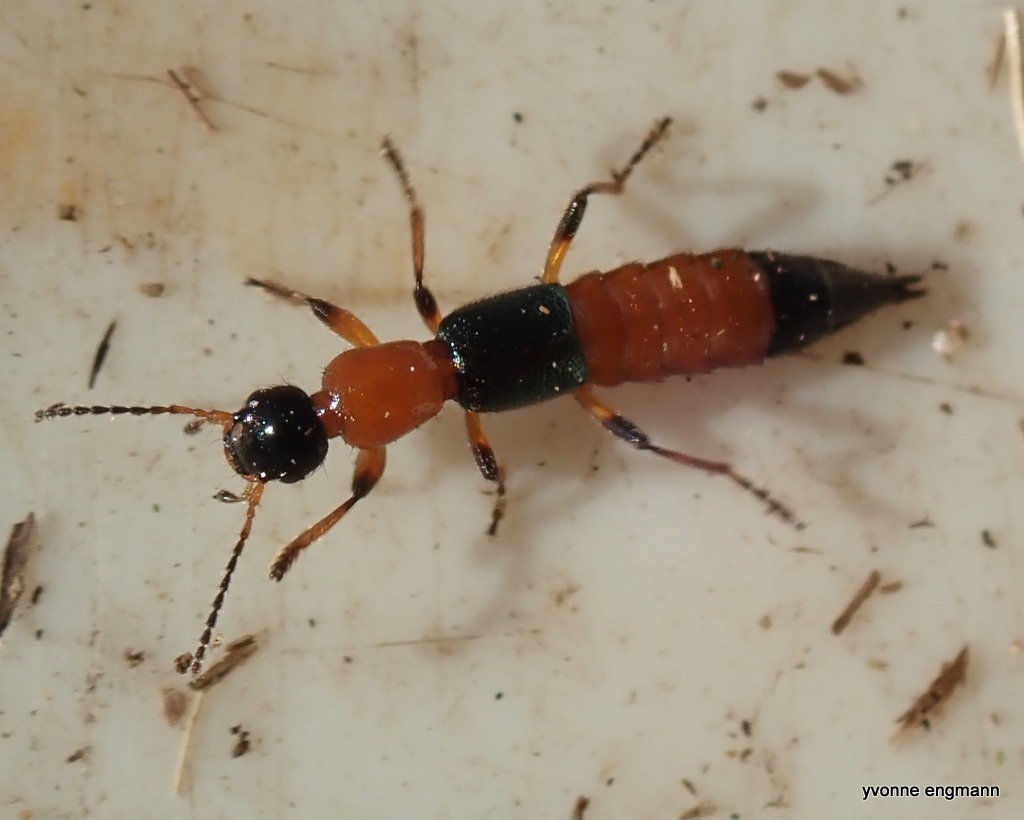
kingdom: Animalia
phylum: Arthropoda
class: Insecta
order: Coleoptera
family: Staphylinidae
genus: Paederus
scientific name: Paederus riparius
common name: Giftig rovbille
